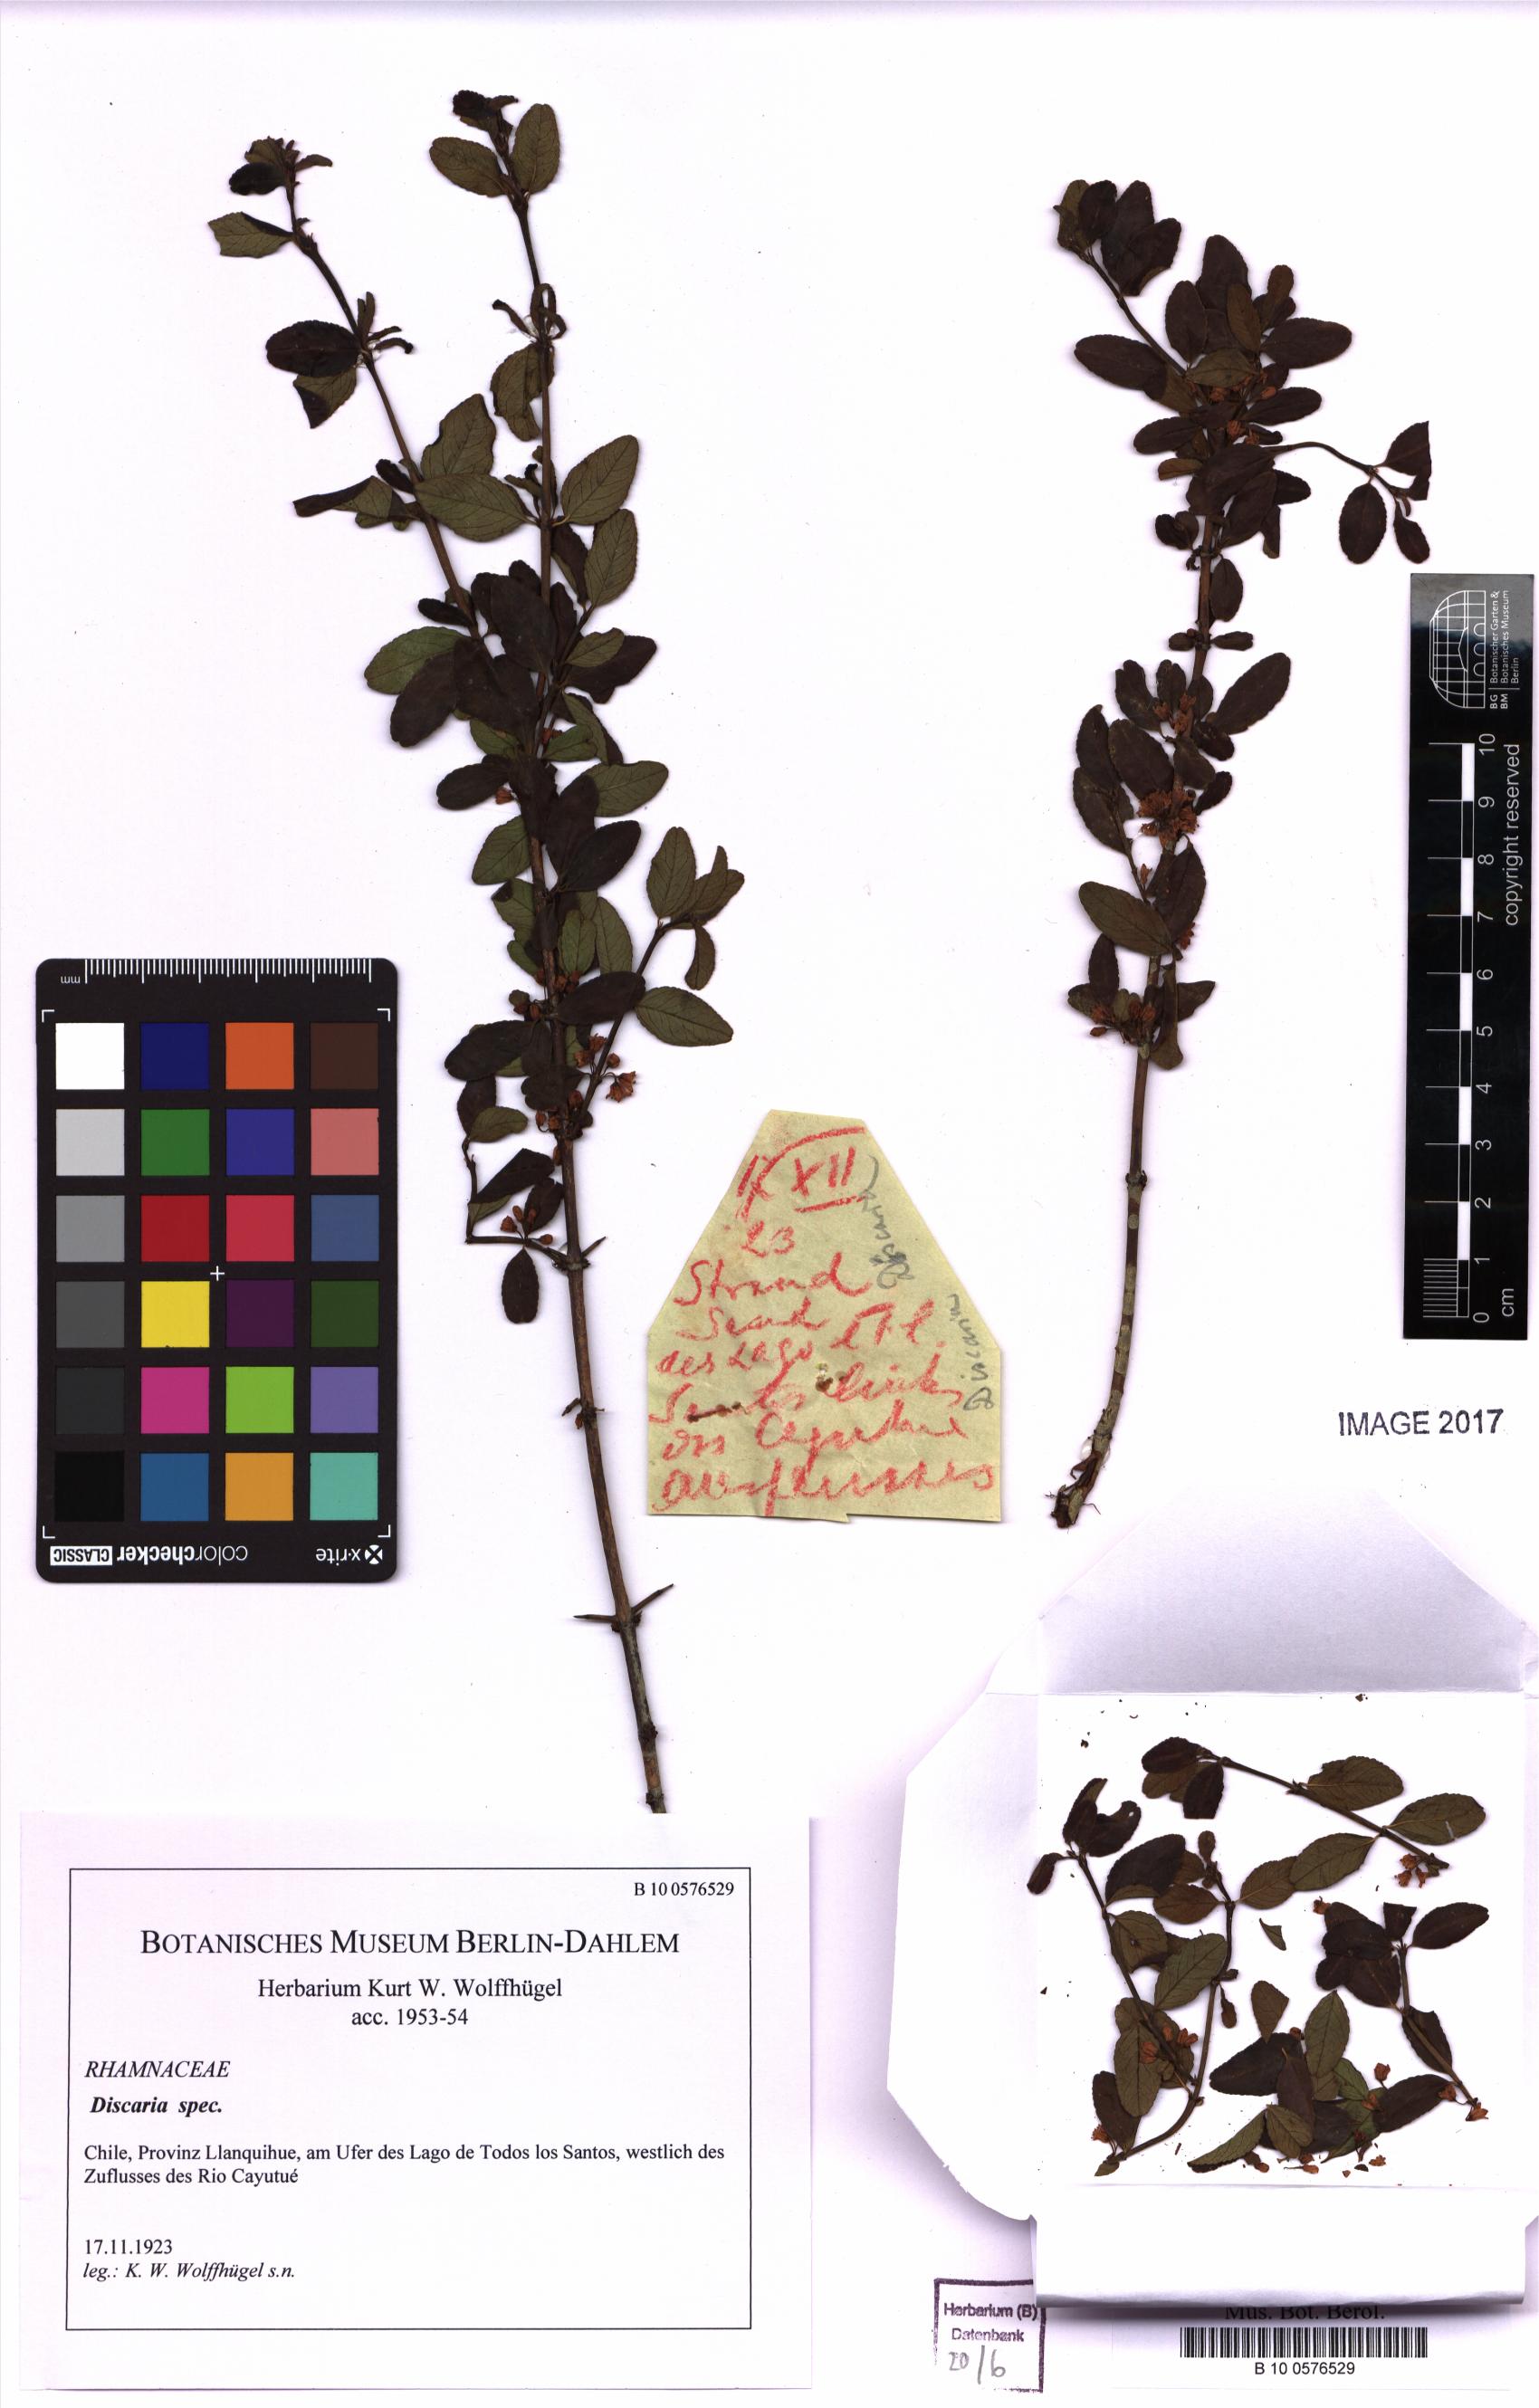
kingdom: Plantae
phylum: Tracheophyta
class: Magnoliopsida
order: Rosales
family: Rhamnaceae
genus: Discaria
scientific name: Discaria
